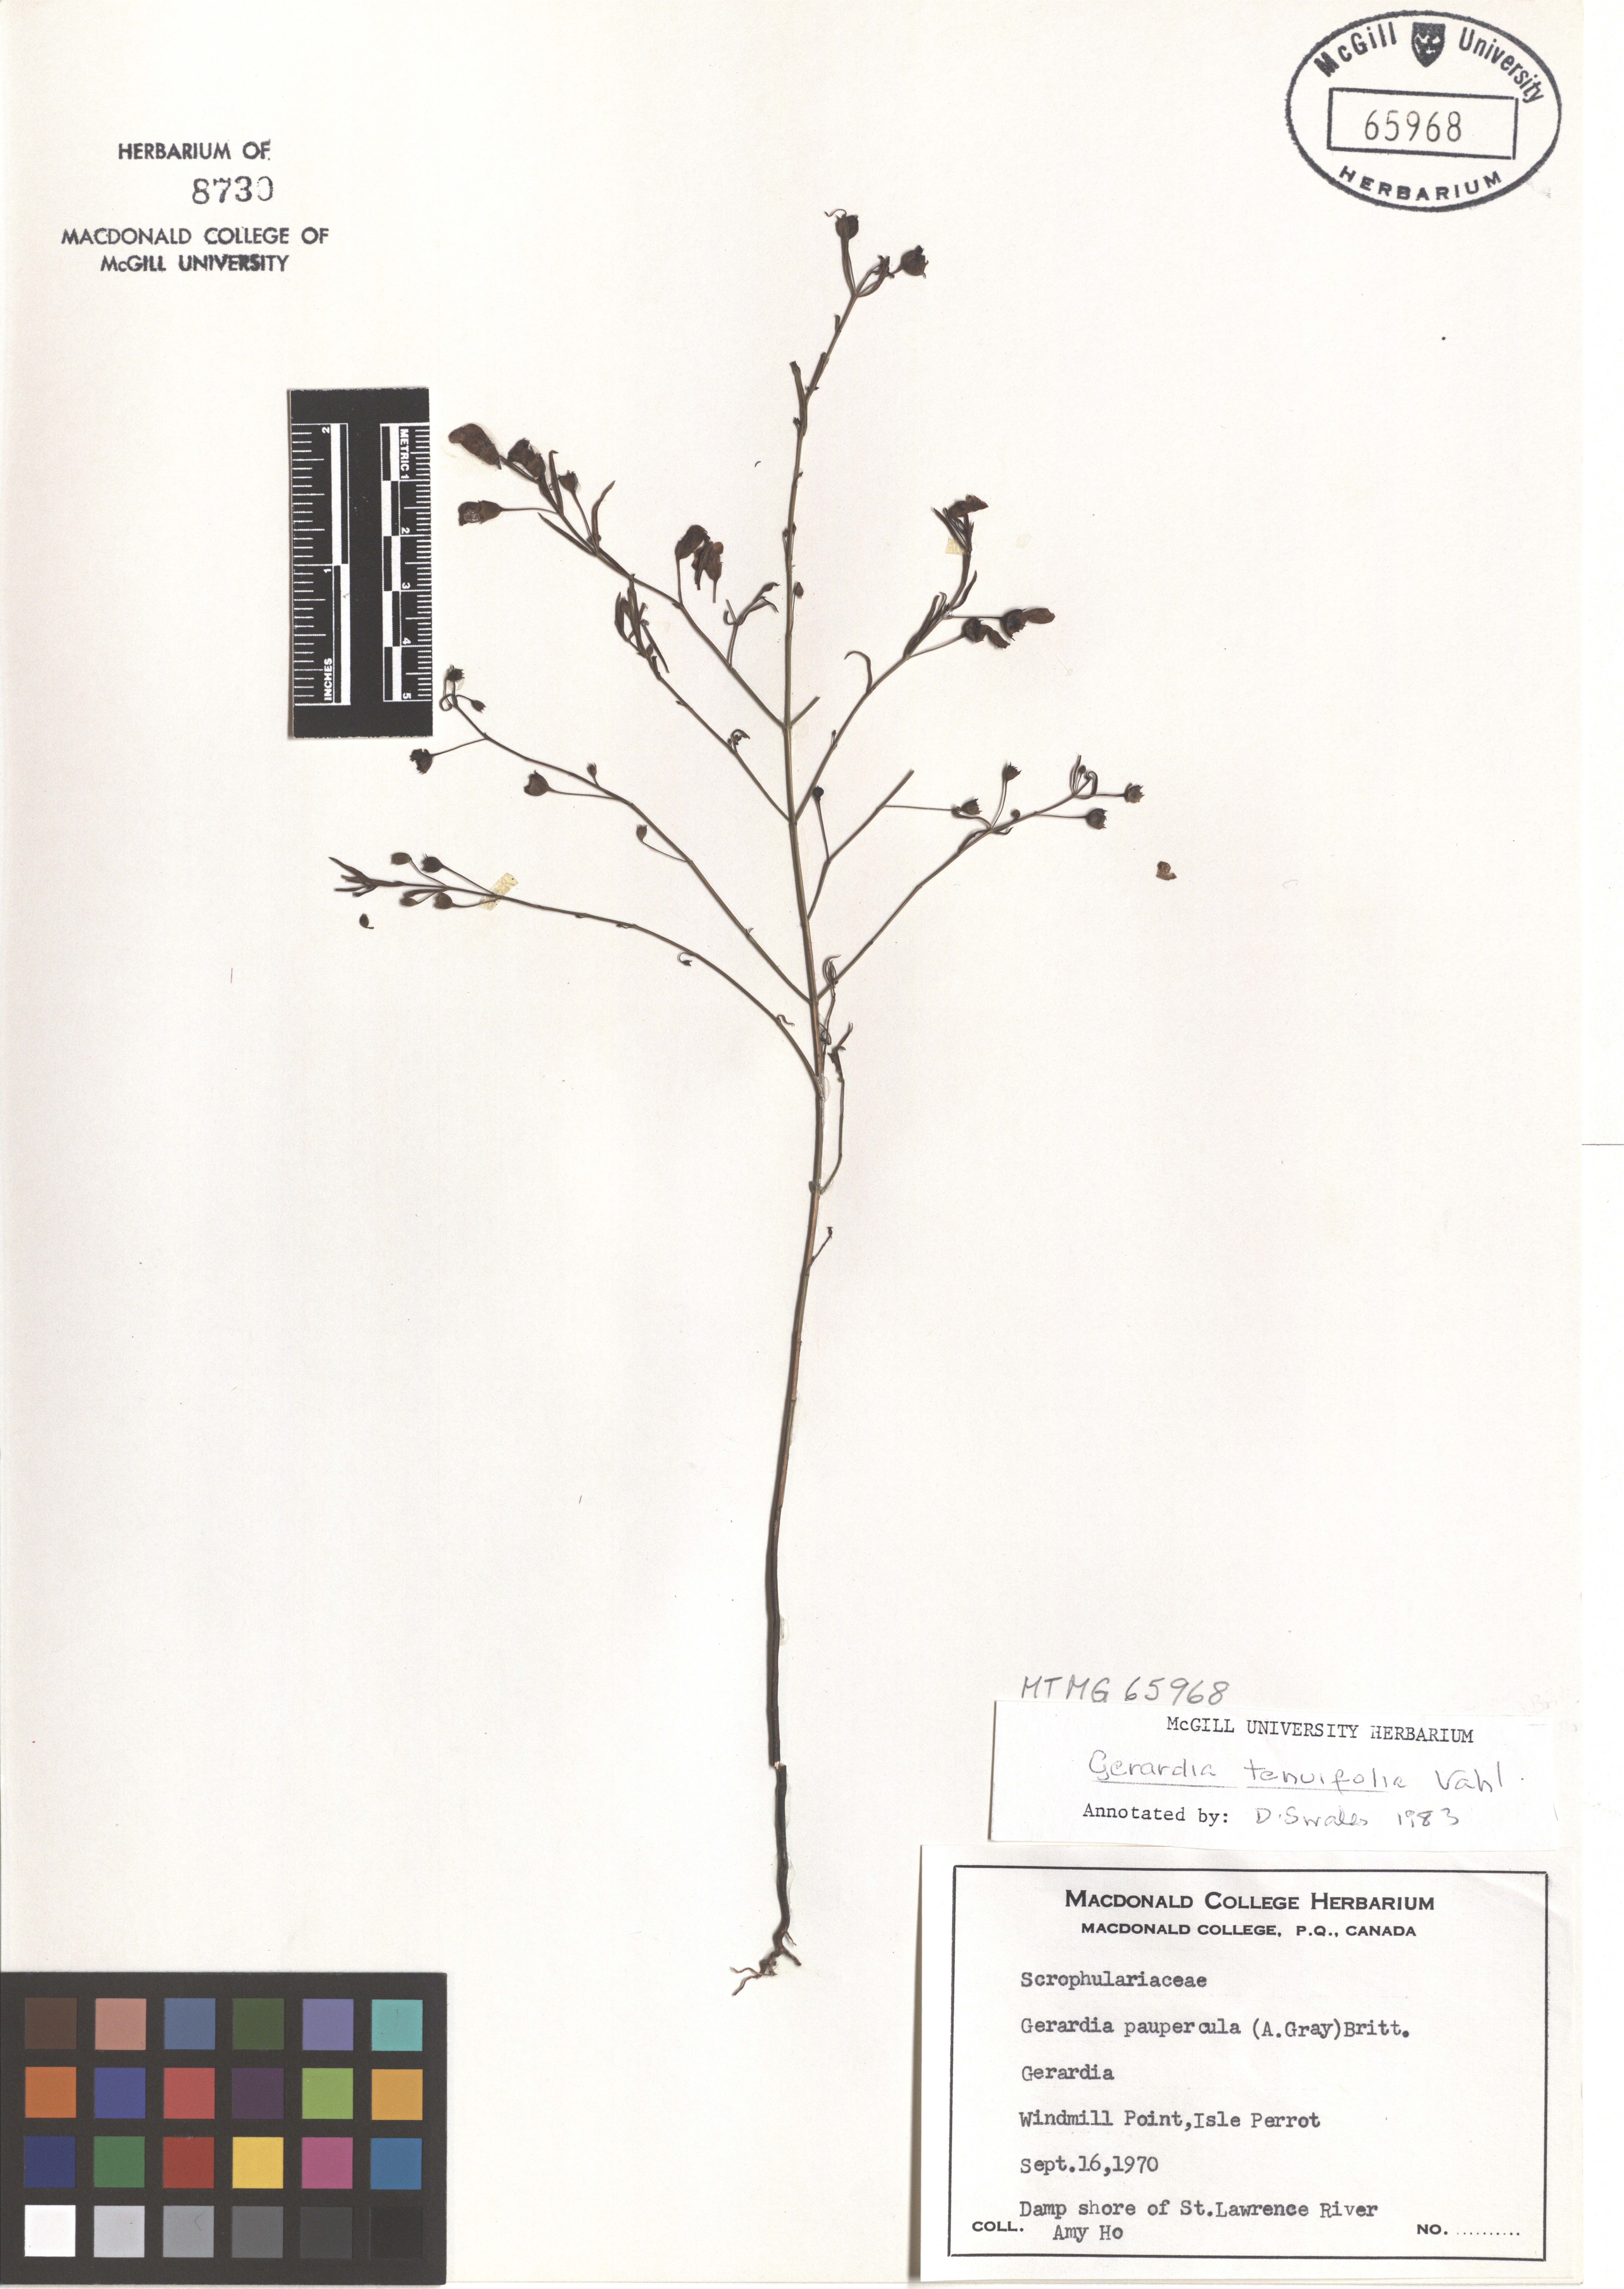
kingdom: Plantae
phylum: Tracheophyta
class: Magnoliopsida
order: Lamiales
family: Orobanchaceae
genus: Agalinis
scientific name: Agalinis tenuifolia
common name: Slender agalinis
